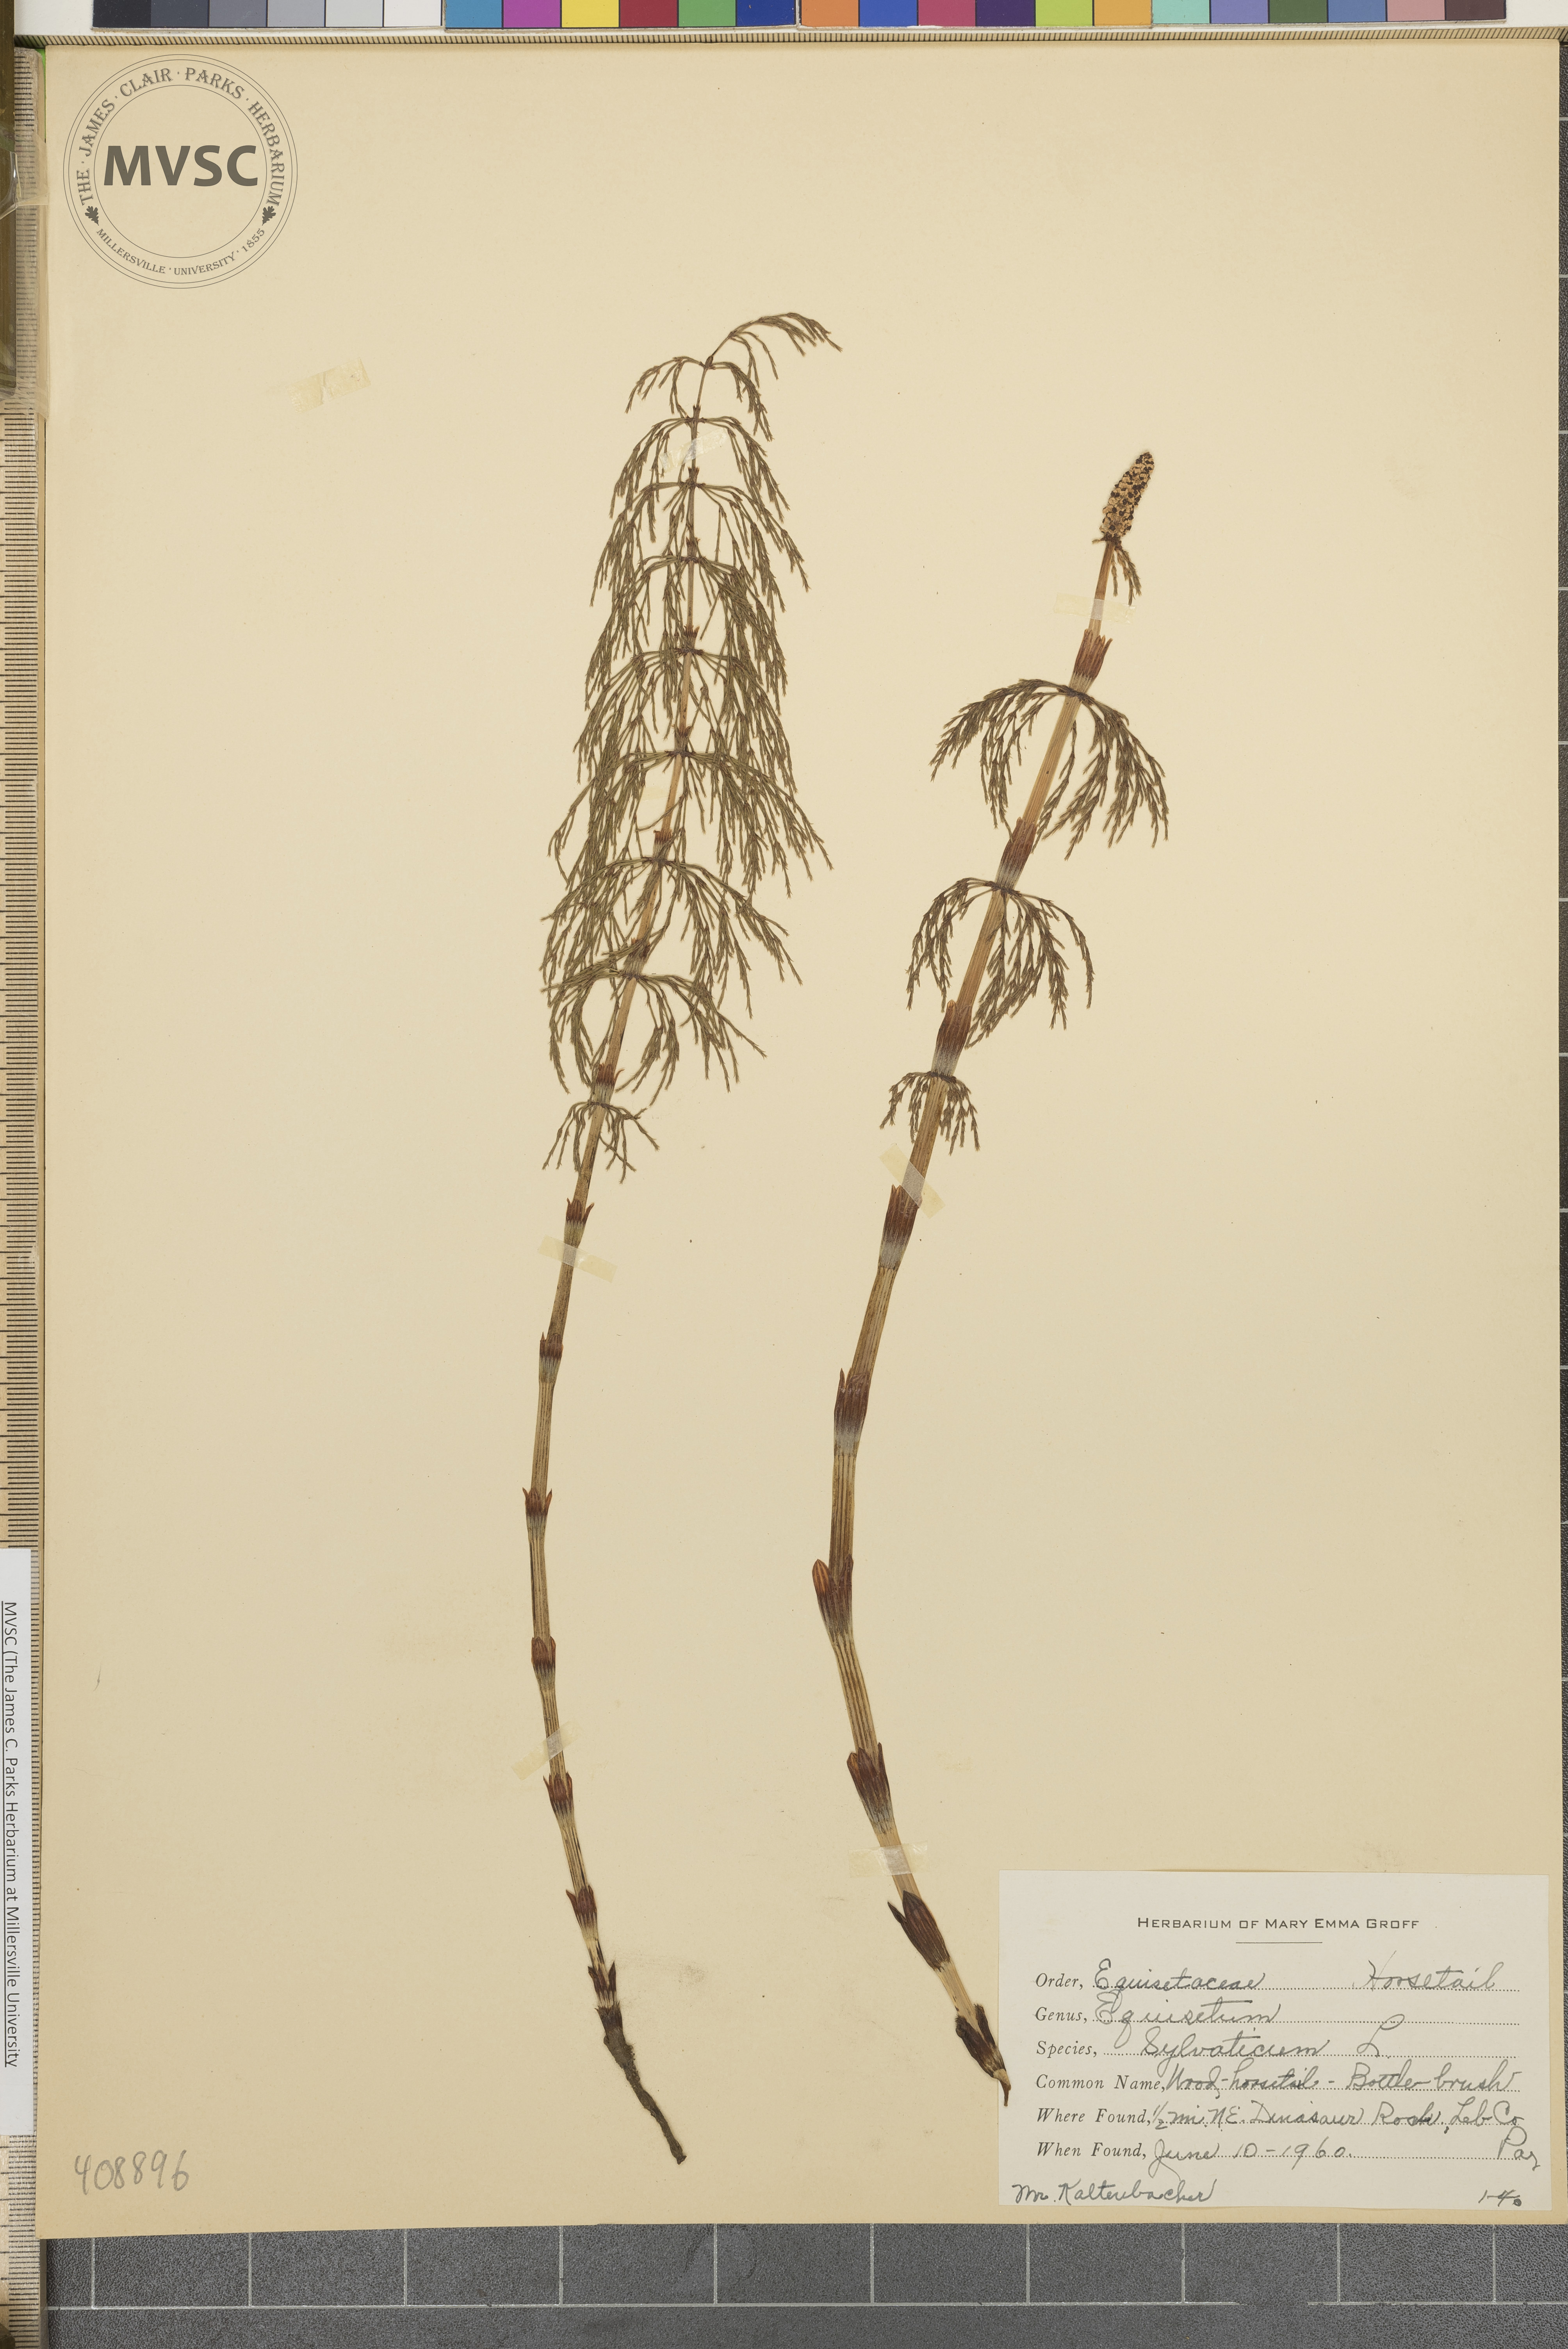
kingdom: Plantae
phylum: Tracheophyta
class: Polypodiopsida
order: Equisetales
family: Equisetaceae
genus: Equisetum
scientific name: Equisetum sylvaticum
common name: Wood horsetail
